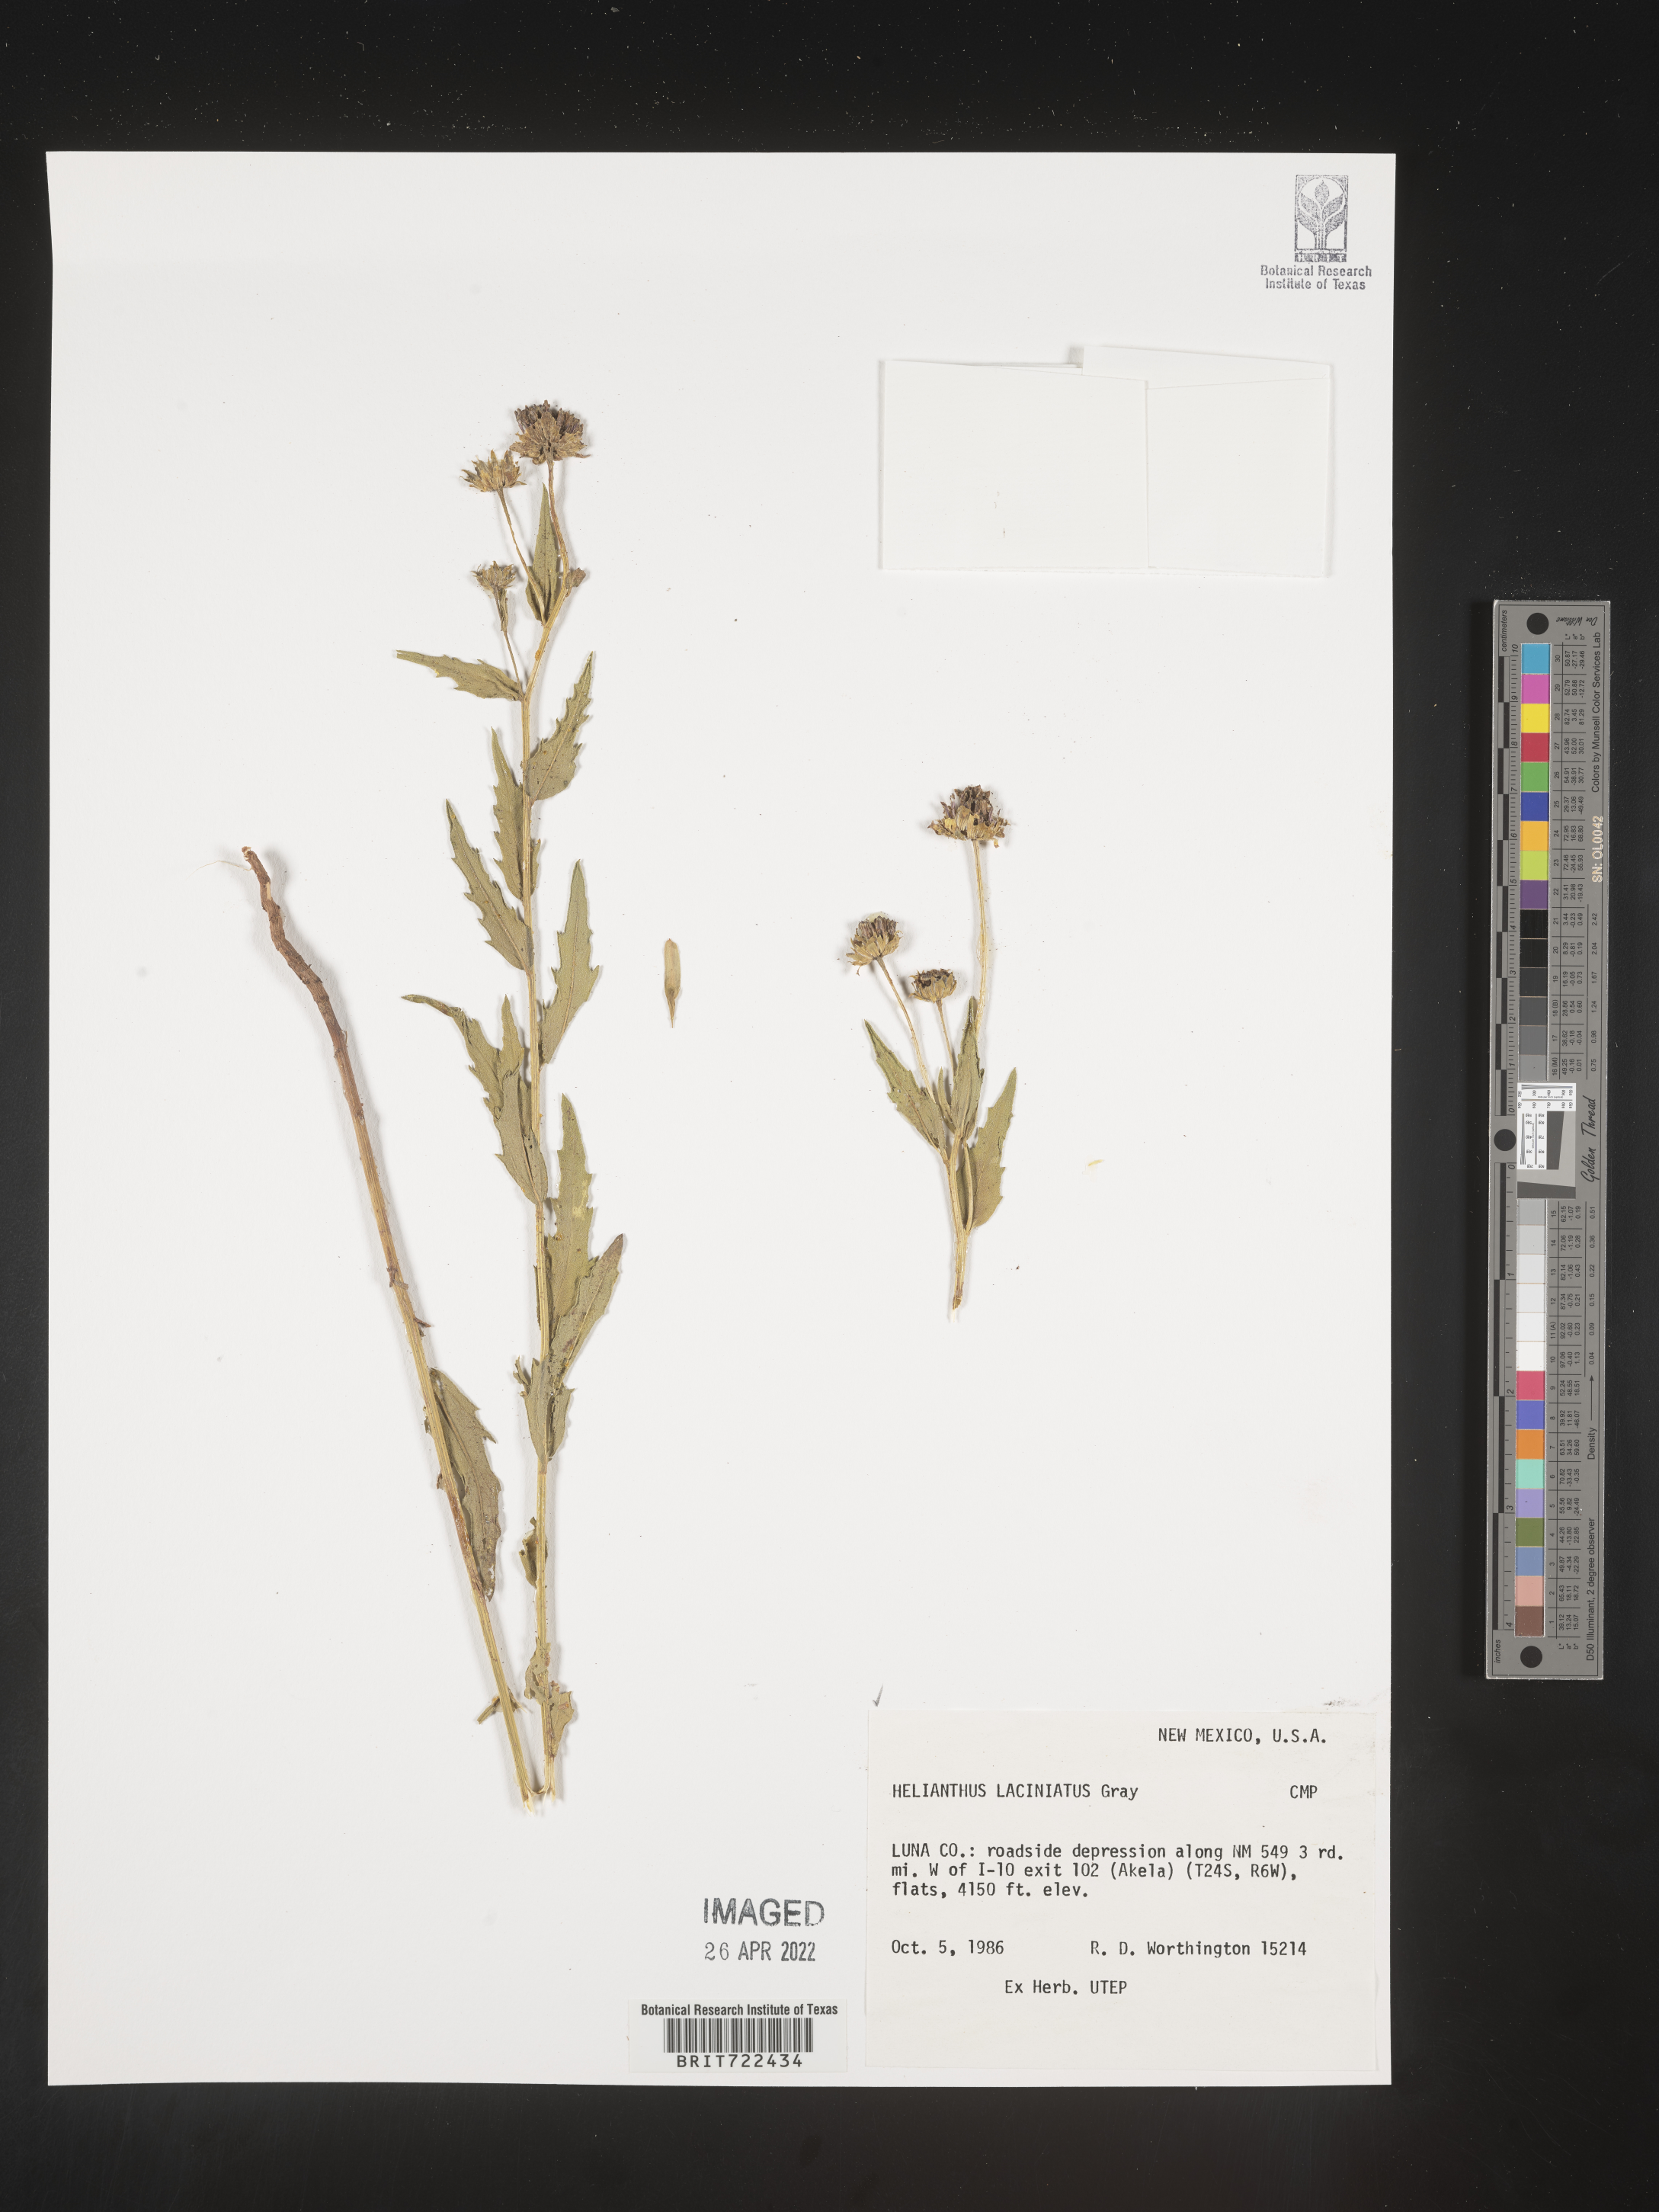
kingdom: Plantae
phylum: Tracheophyta
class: Magnoliopsida
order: Asterales
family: Asteraceae
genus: Helianthus
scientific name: Helianthus laciniatus
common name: Jagged-edge sunflower
